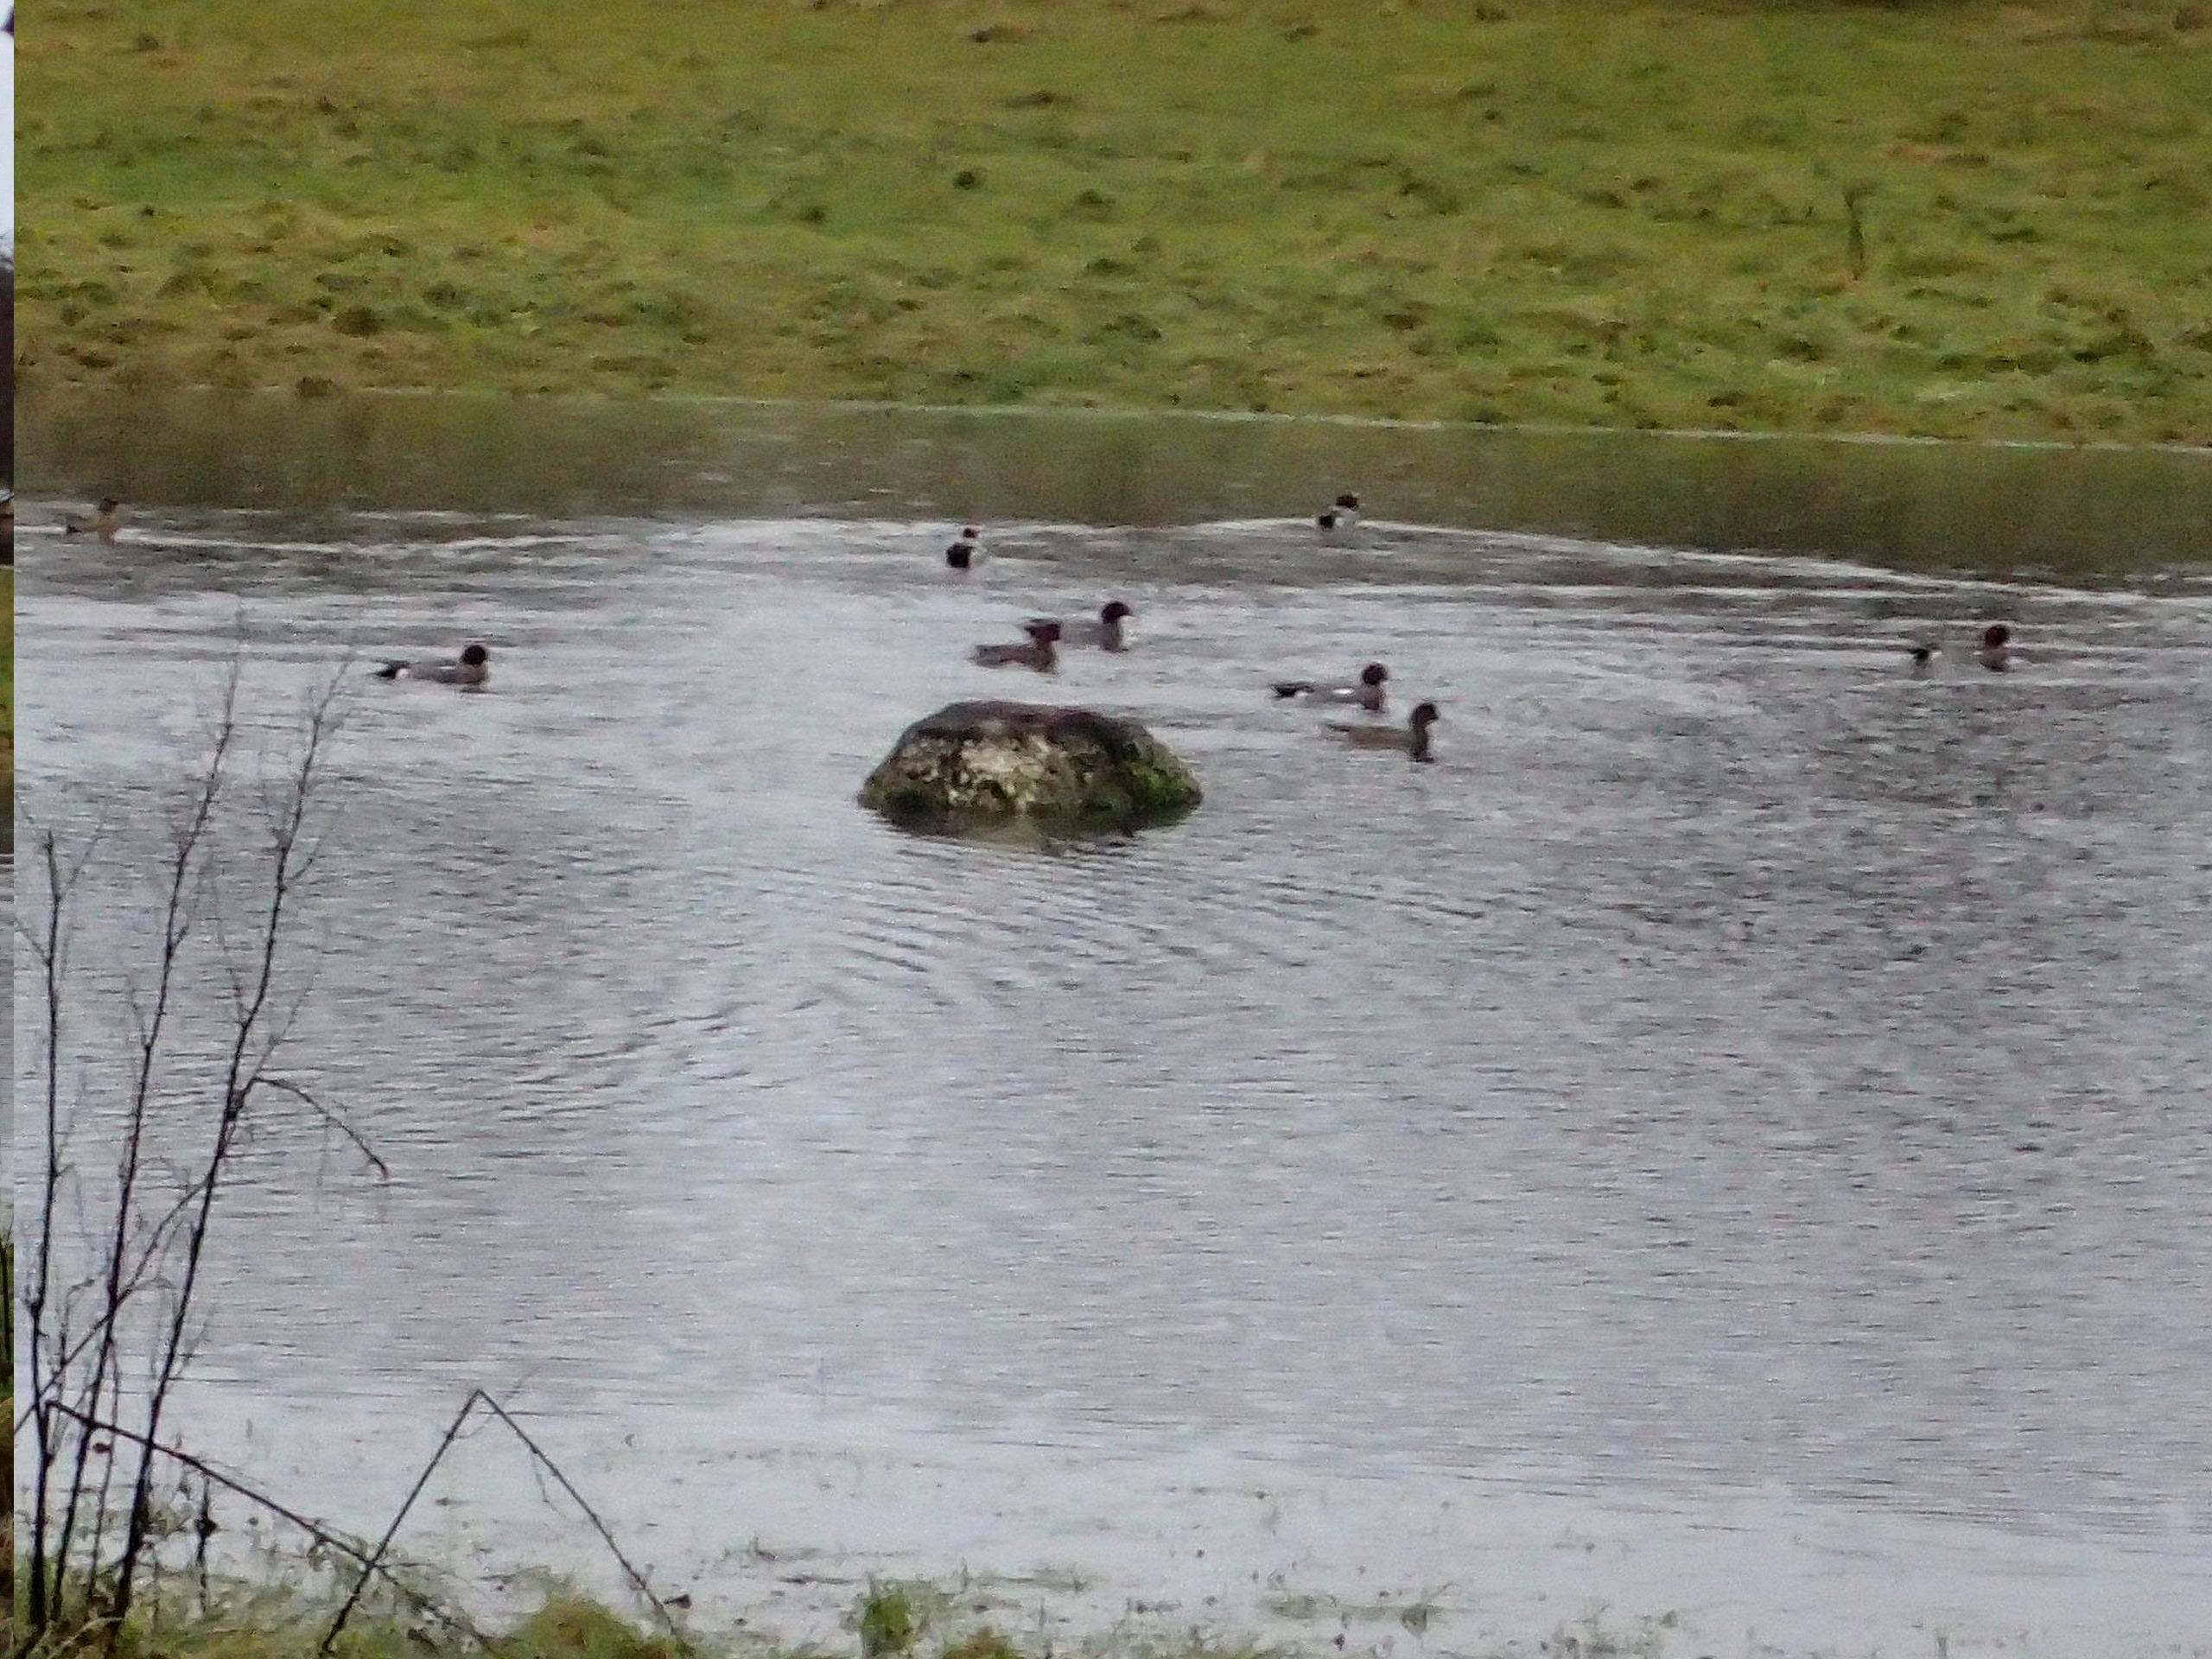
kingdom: Animalia
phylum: Chordata
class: Aves
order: Anseriformes
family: Anatidae
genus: Mareca
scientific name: Mareca penelope
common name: Pibeand
